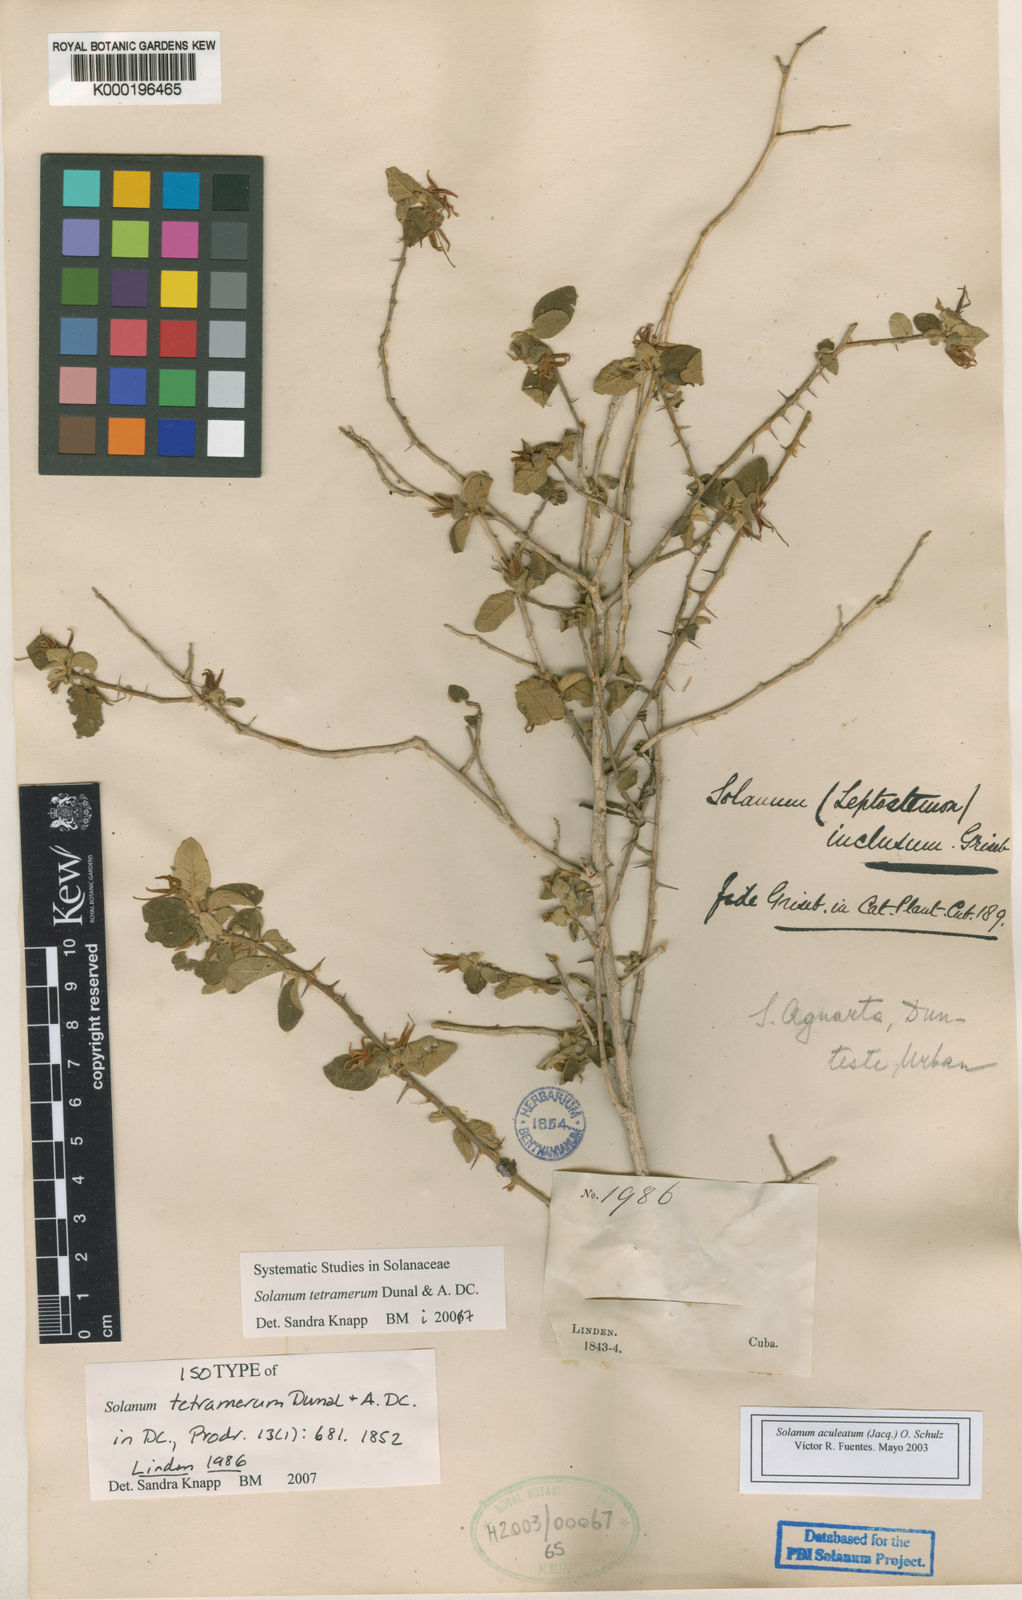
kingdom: Plantae
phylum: Tracheophyta
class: Magnoliopsida
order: Solanales
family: Solanaceae
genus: Solanum
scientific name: Solanum tetramerum
